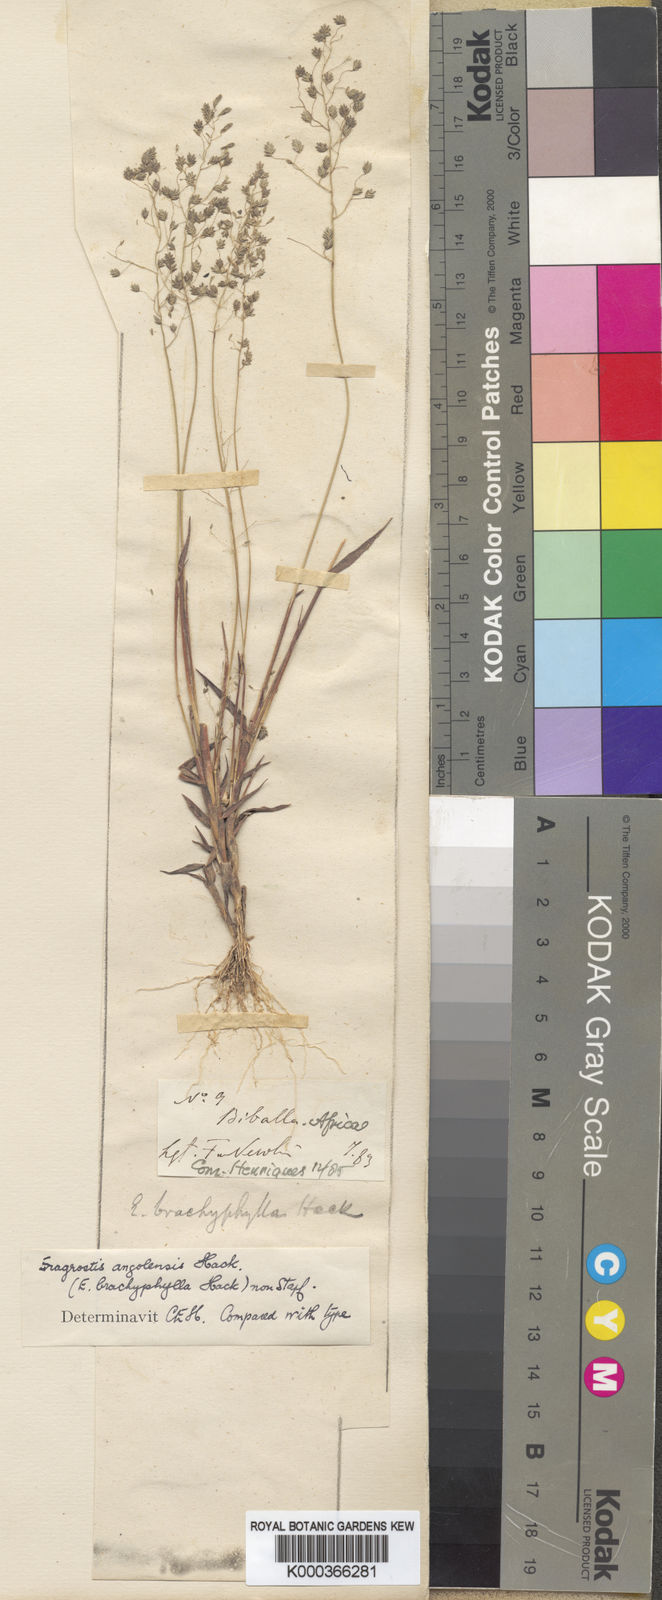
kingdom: Plantae
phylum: Tracheophyta
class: Liliopsida
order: Poales
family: Poaceae
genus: Eragrostis
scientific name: Eragrostis vacillans
